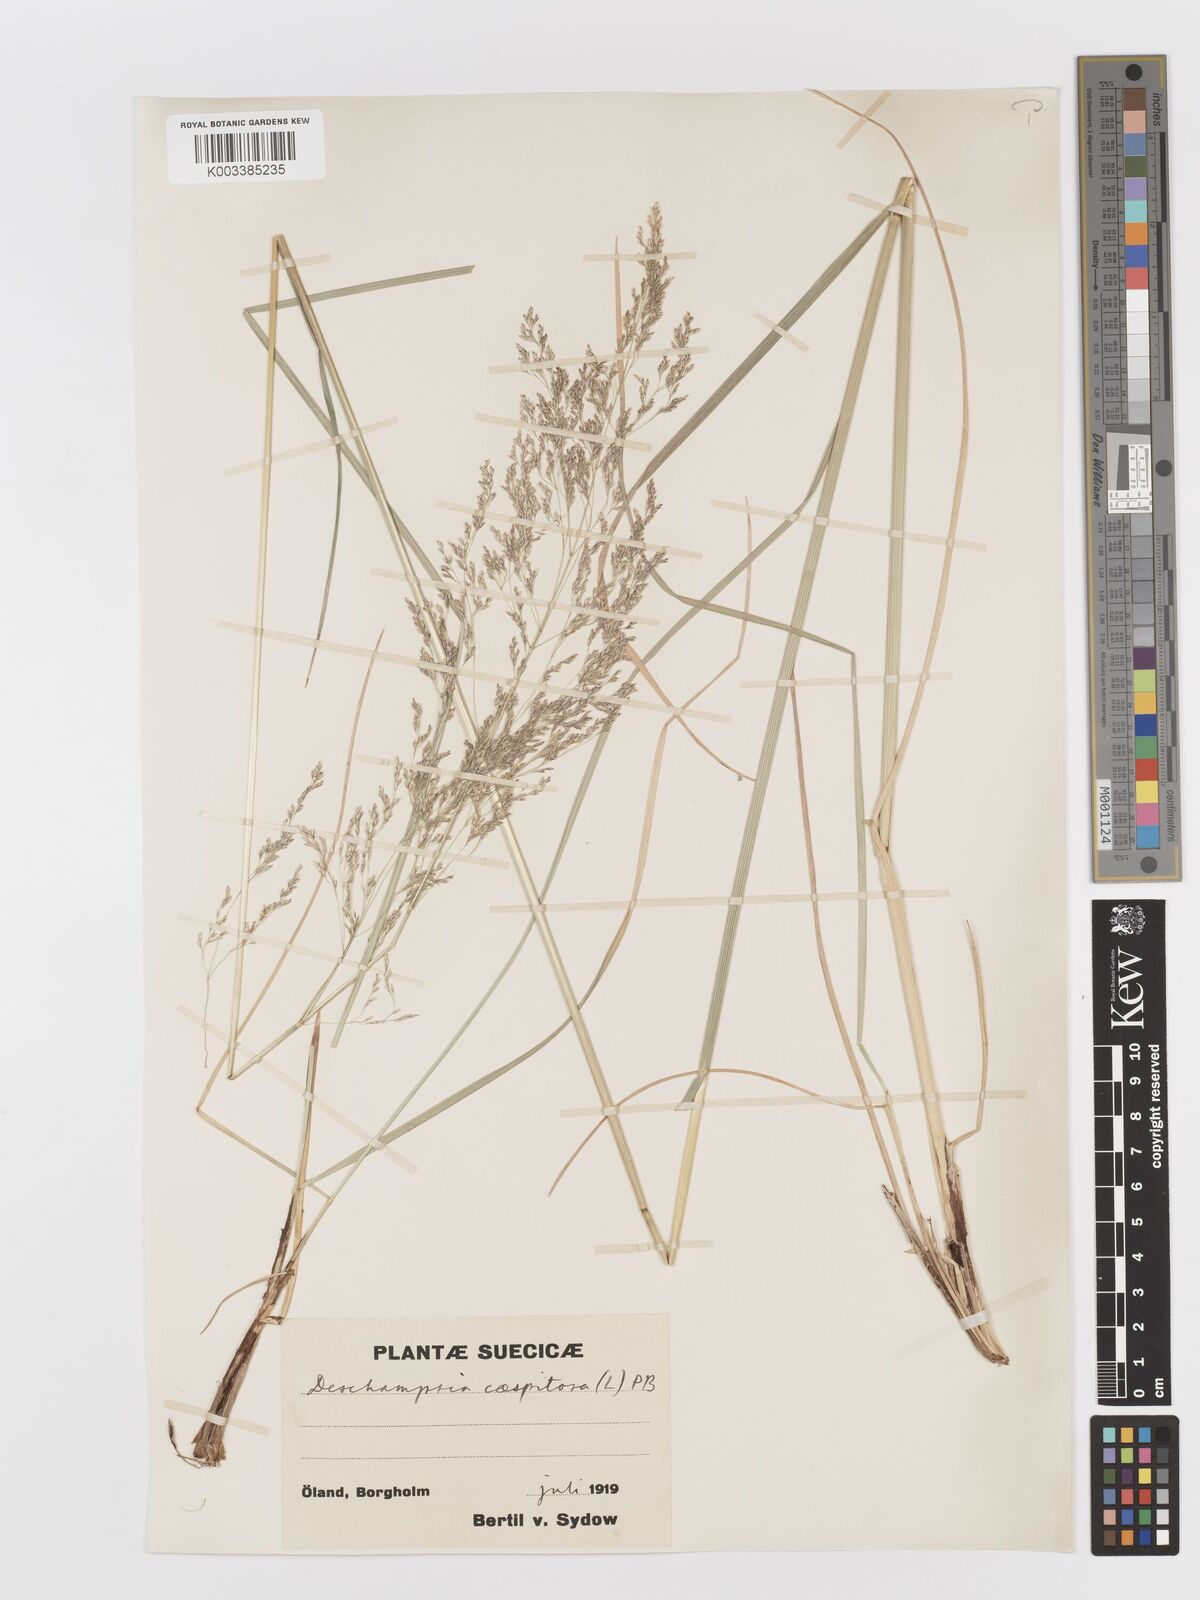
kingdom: Plantae
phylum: Tracheophyta
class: Liliopsida
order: Poales
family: Poaceae
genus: Deschampsia
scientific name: Deschampsia cespitosa
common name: Tufted hair-grass
